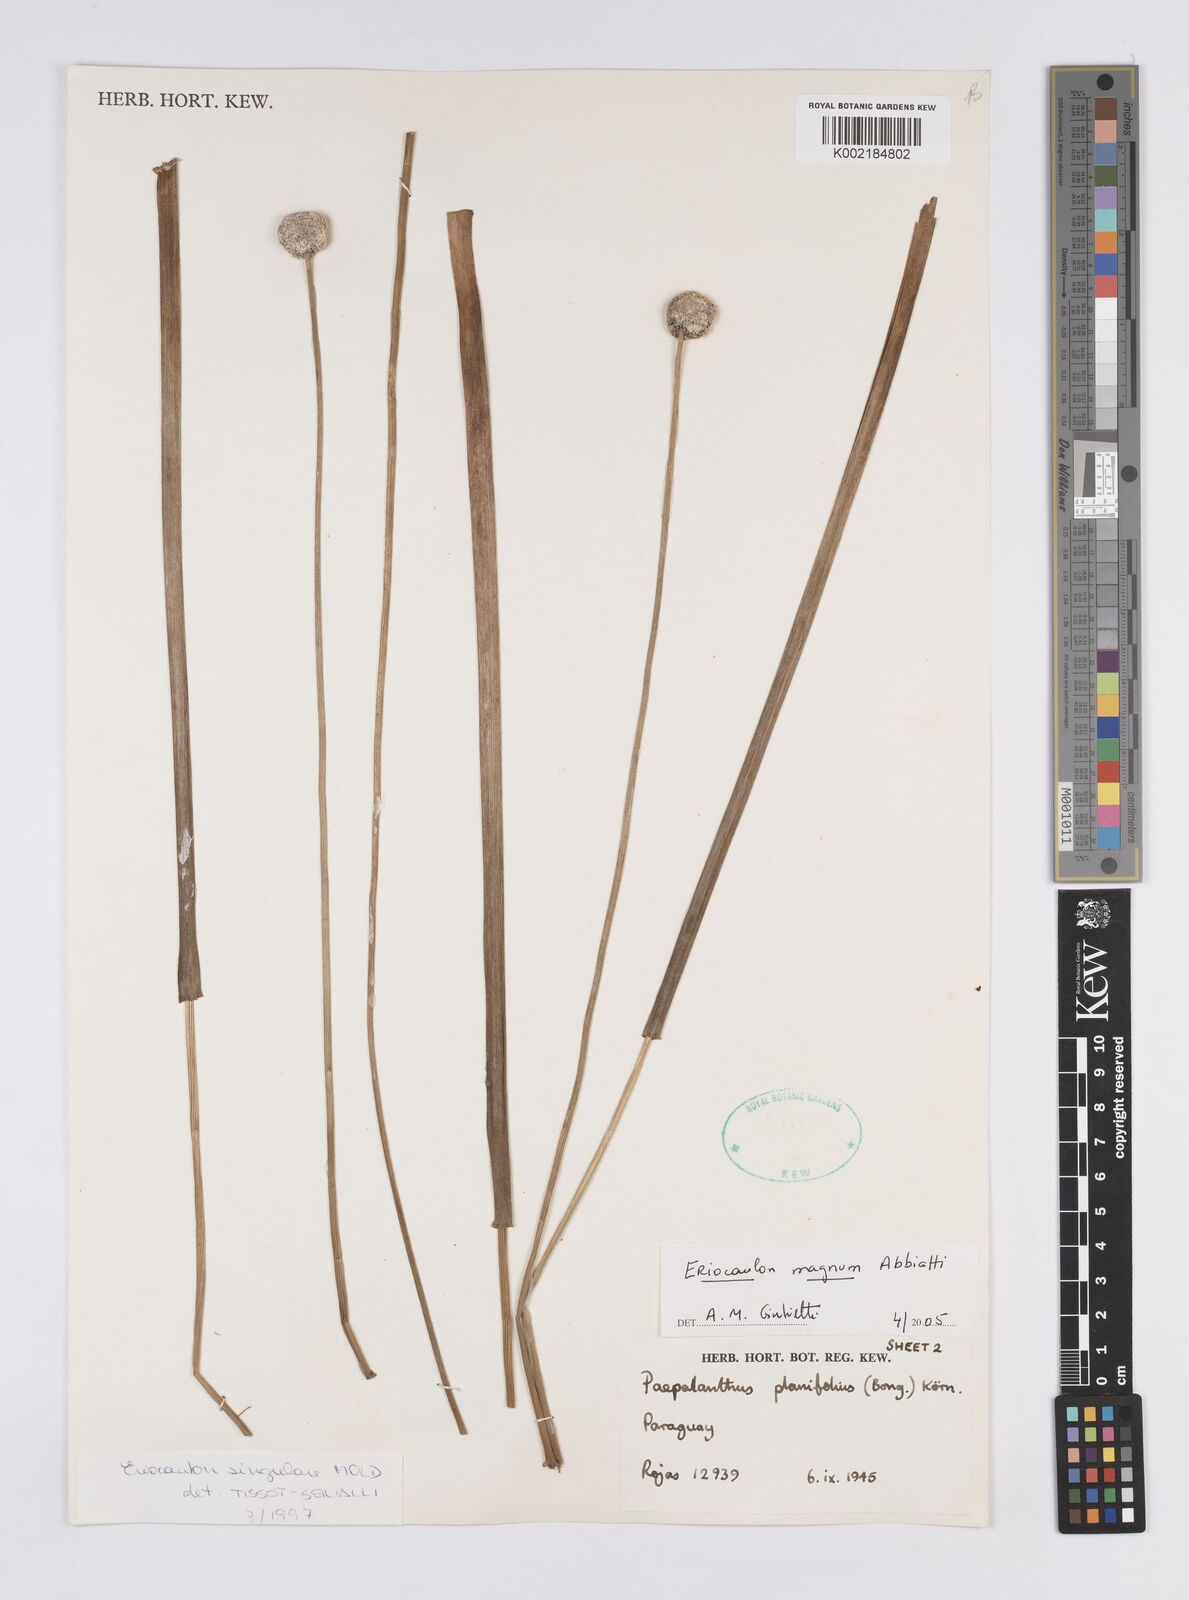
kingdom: Plantae
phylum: Tracheophyta
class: Liliopsida
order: Poales
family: Eriocaulaceae
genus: Eriocaulon
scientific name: Eriocaulon magnum
